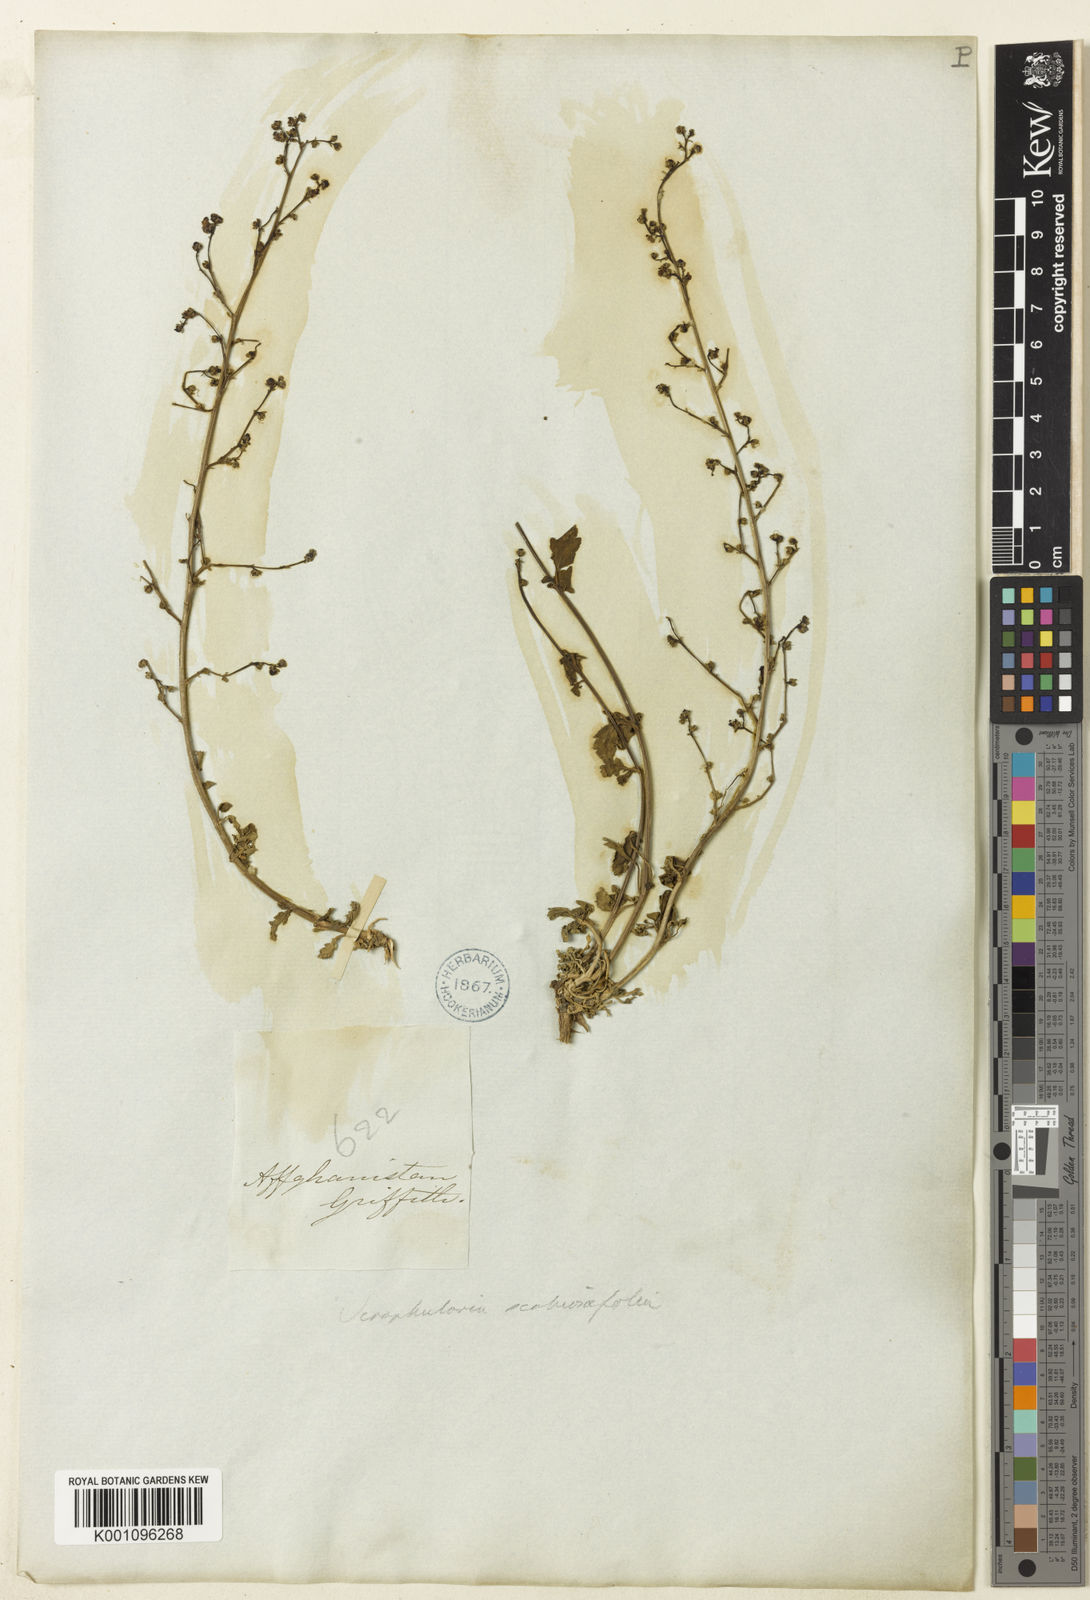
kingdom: Plantae
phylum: Tracheophyta
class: Magnoliopsida
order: Lamiales
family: Scrophulariaceae
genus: Scrophularia
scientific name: Scrophularia scabiosifolia
